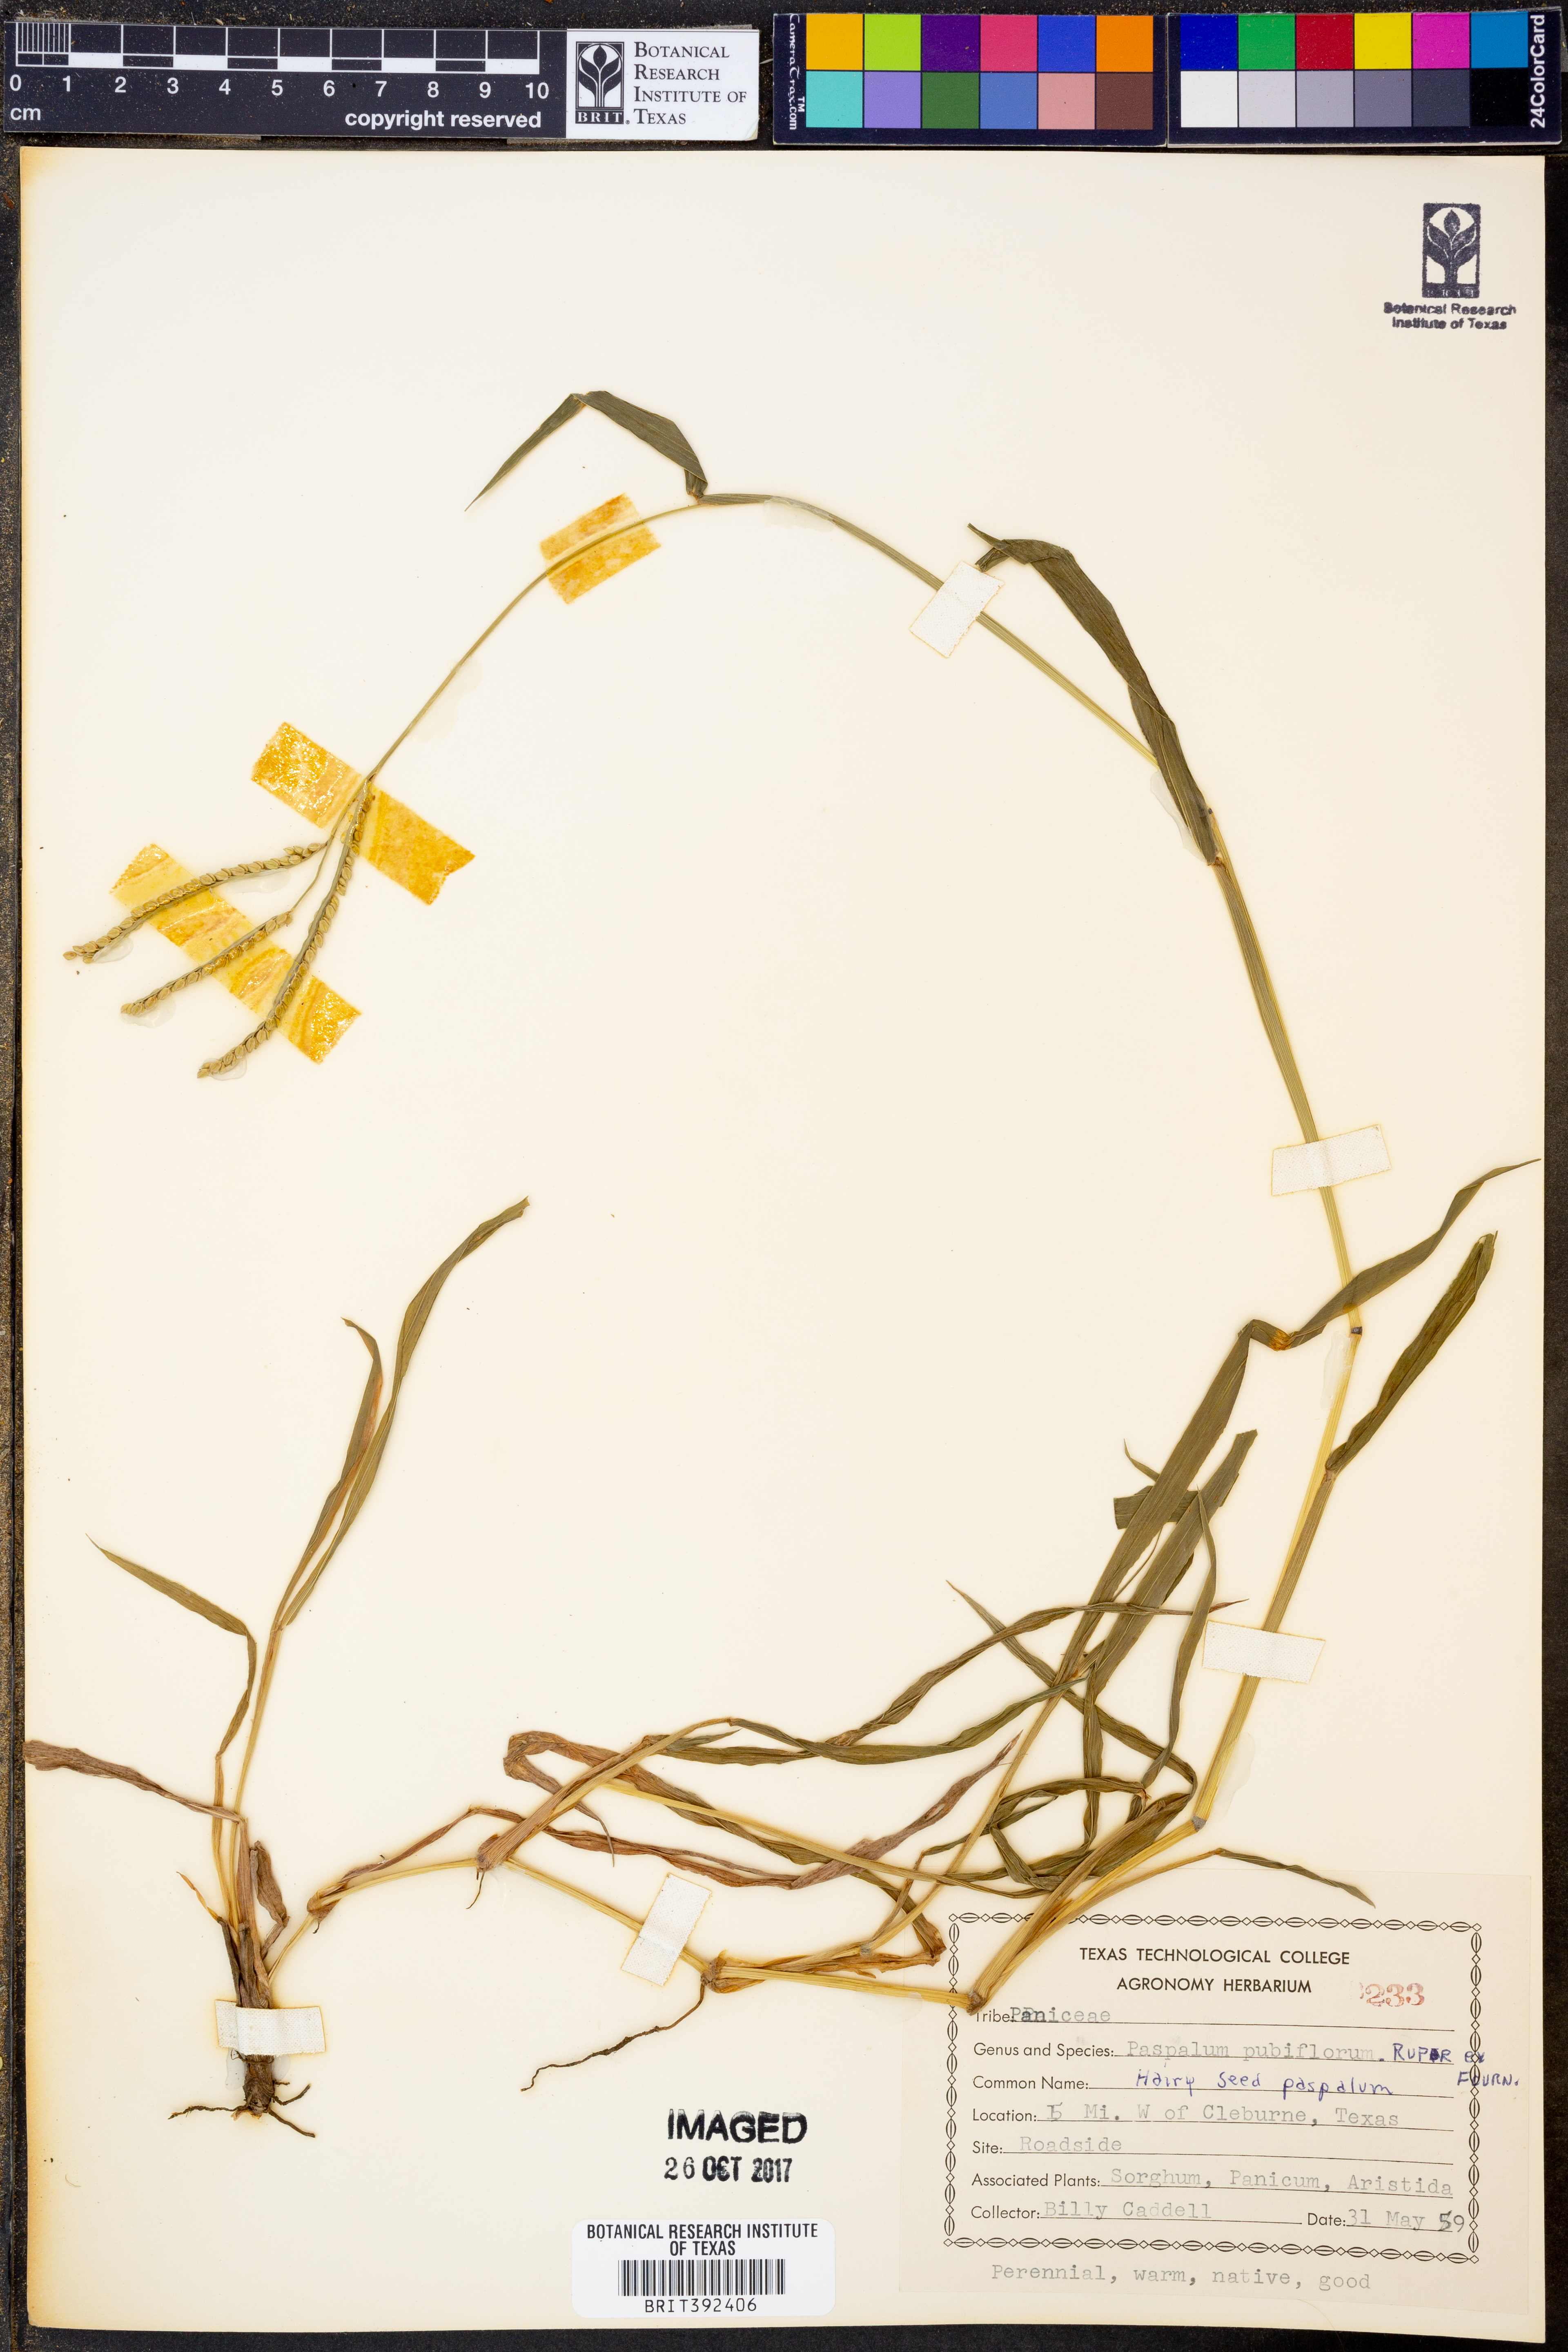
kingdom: Plantae
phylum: Tracheophyta
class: Liliopsida
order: Poales
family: Poaceae
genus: Paspalum
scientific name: Paspalum pubiflorum
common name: Hairy-seed paspalum
